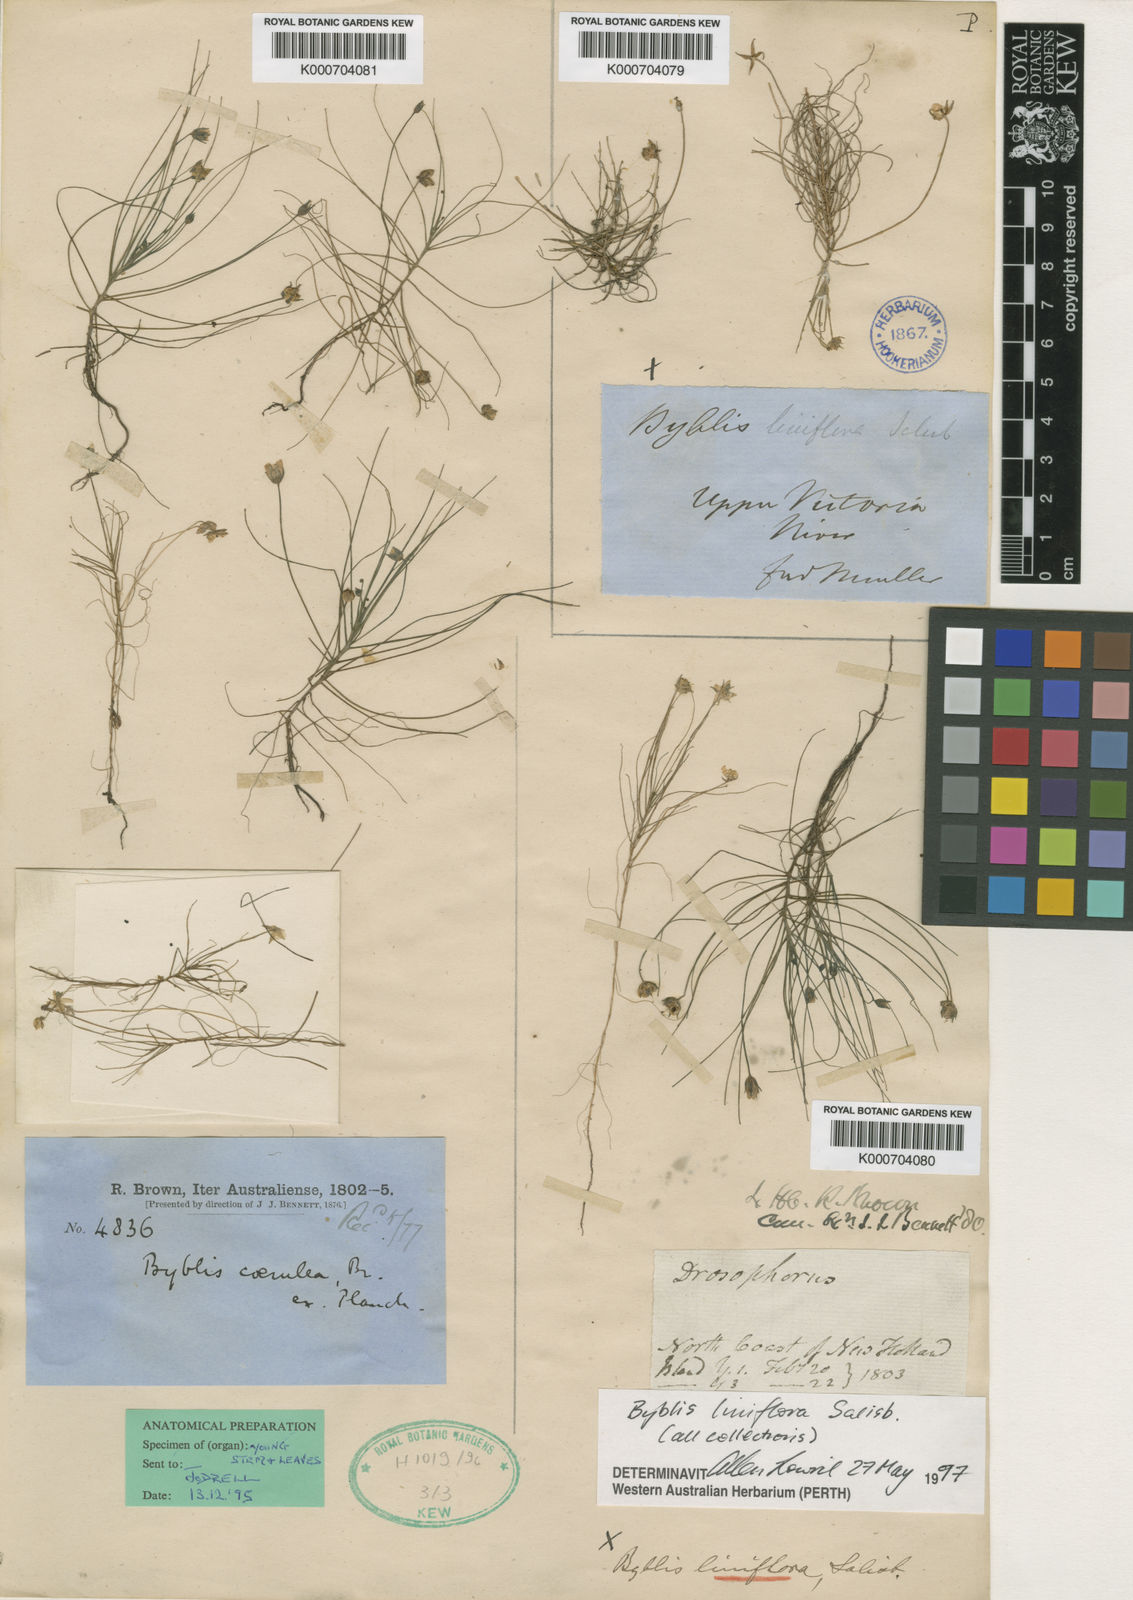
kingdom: Plantae
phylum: Tracheophyta
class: Magnoliopsida
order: Lamiales
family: Byblidaceae
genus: Byblis
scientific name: Byblis liniflora
